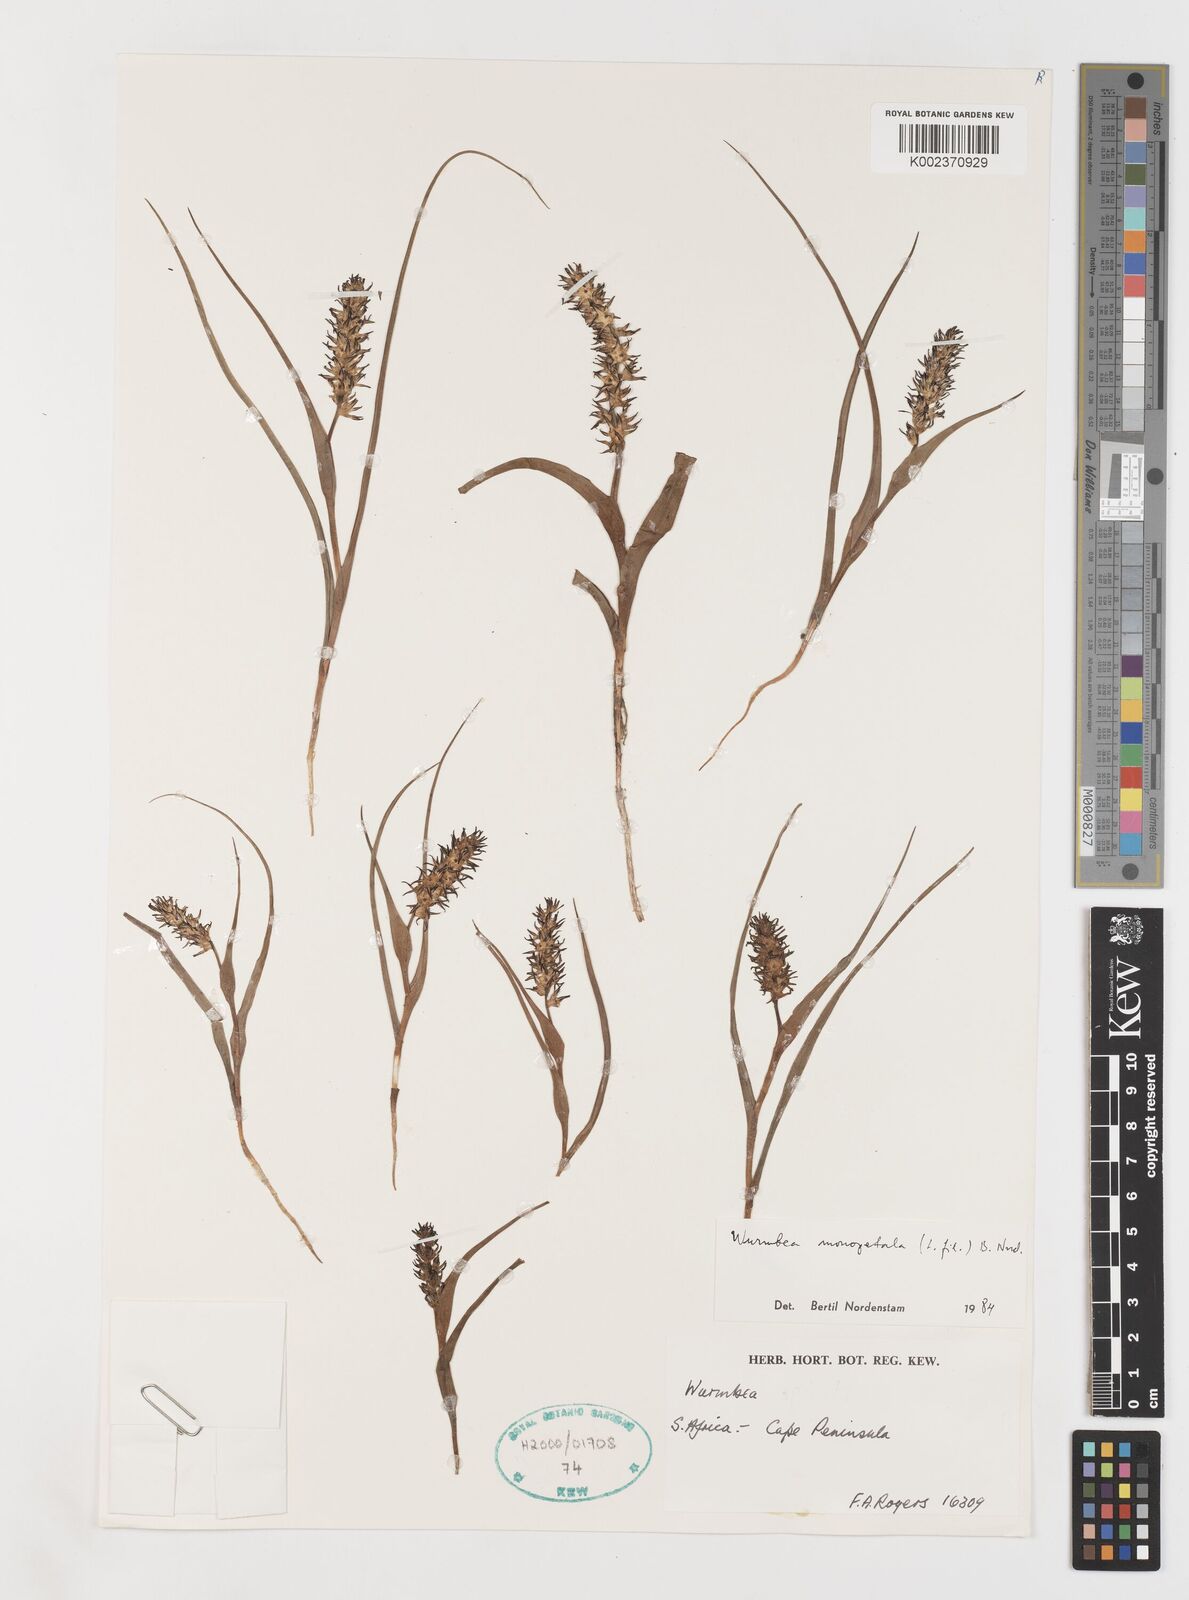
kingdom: Plantae
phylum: Tracheophyta
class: Liliopsida
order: Liliales
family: Colchicaceae
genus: Wurmbea
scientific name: Wurmbea monopetala
